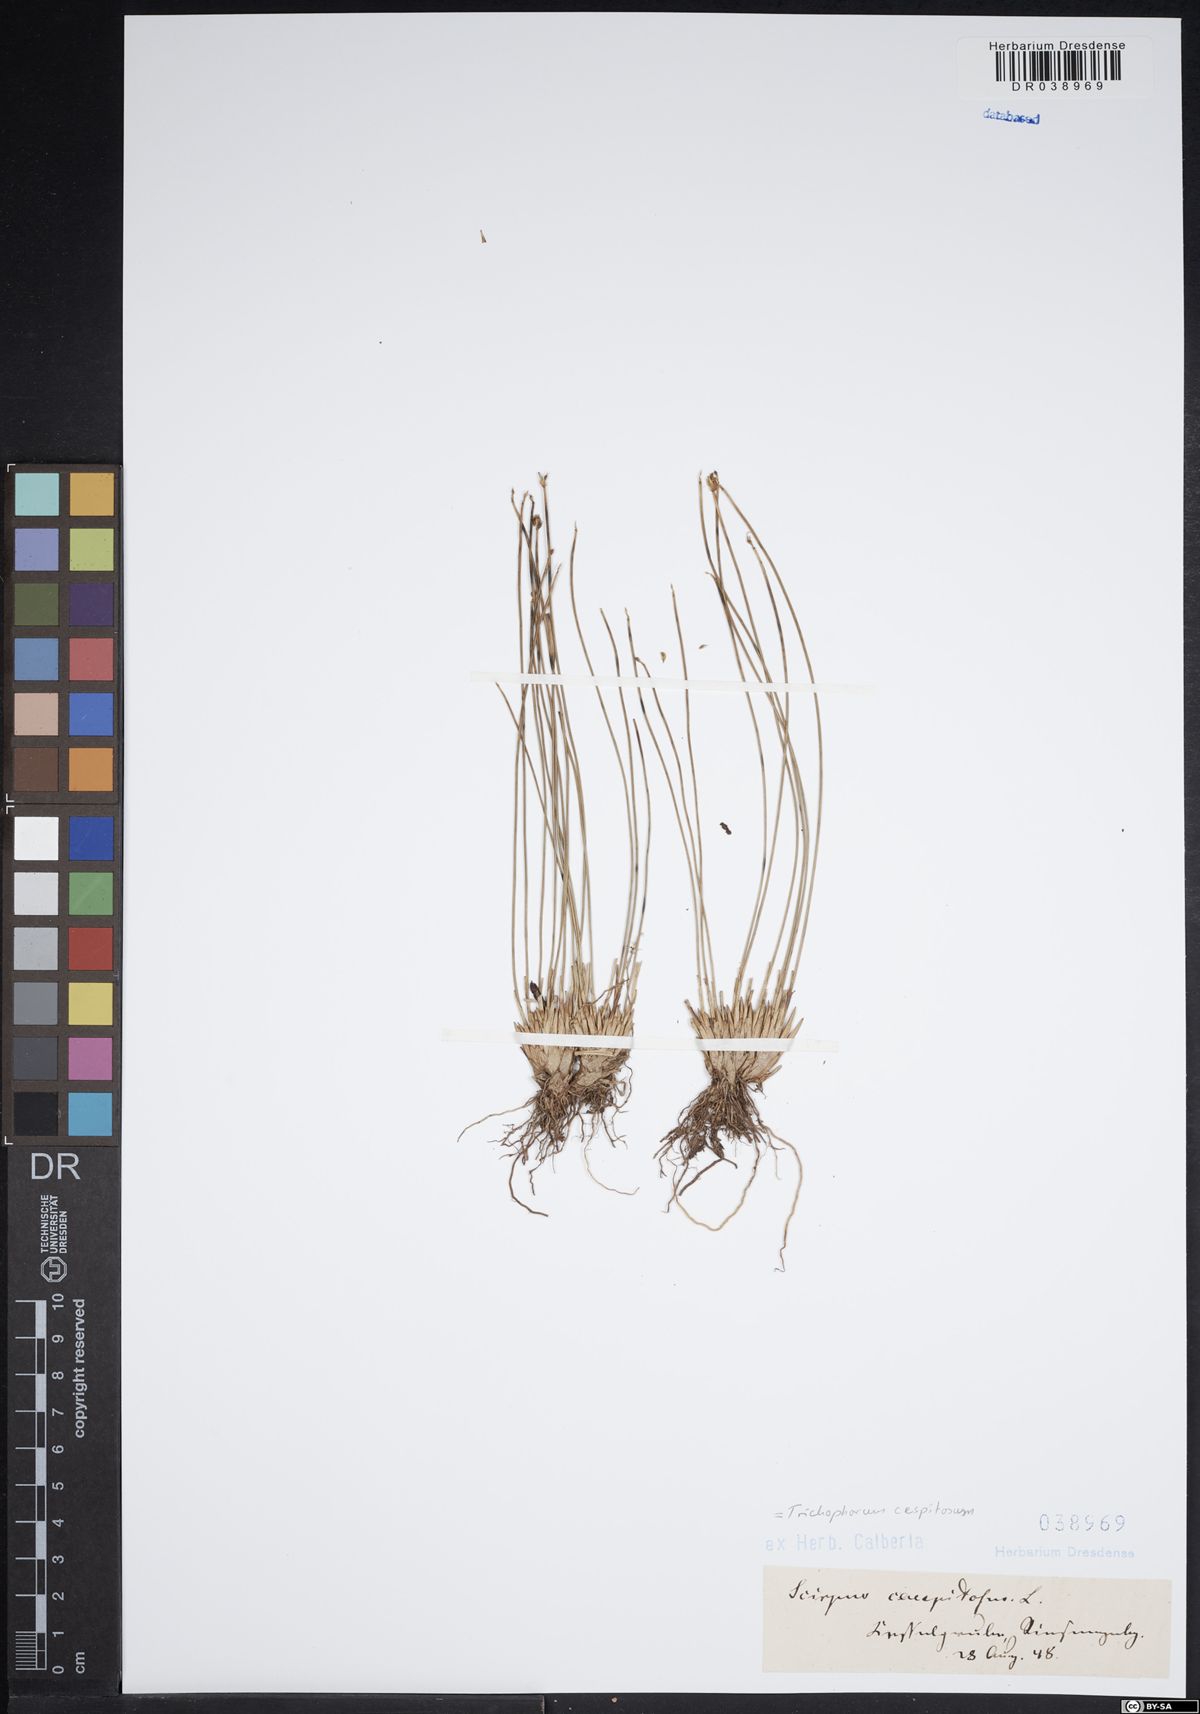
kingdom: Plantae
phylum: Tracheophyta
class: Liliopsida
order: Poales
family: Cyperaceae
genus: Trichophorum
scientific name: Trichophorum cespitosum
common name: Cespitose bulrush
